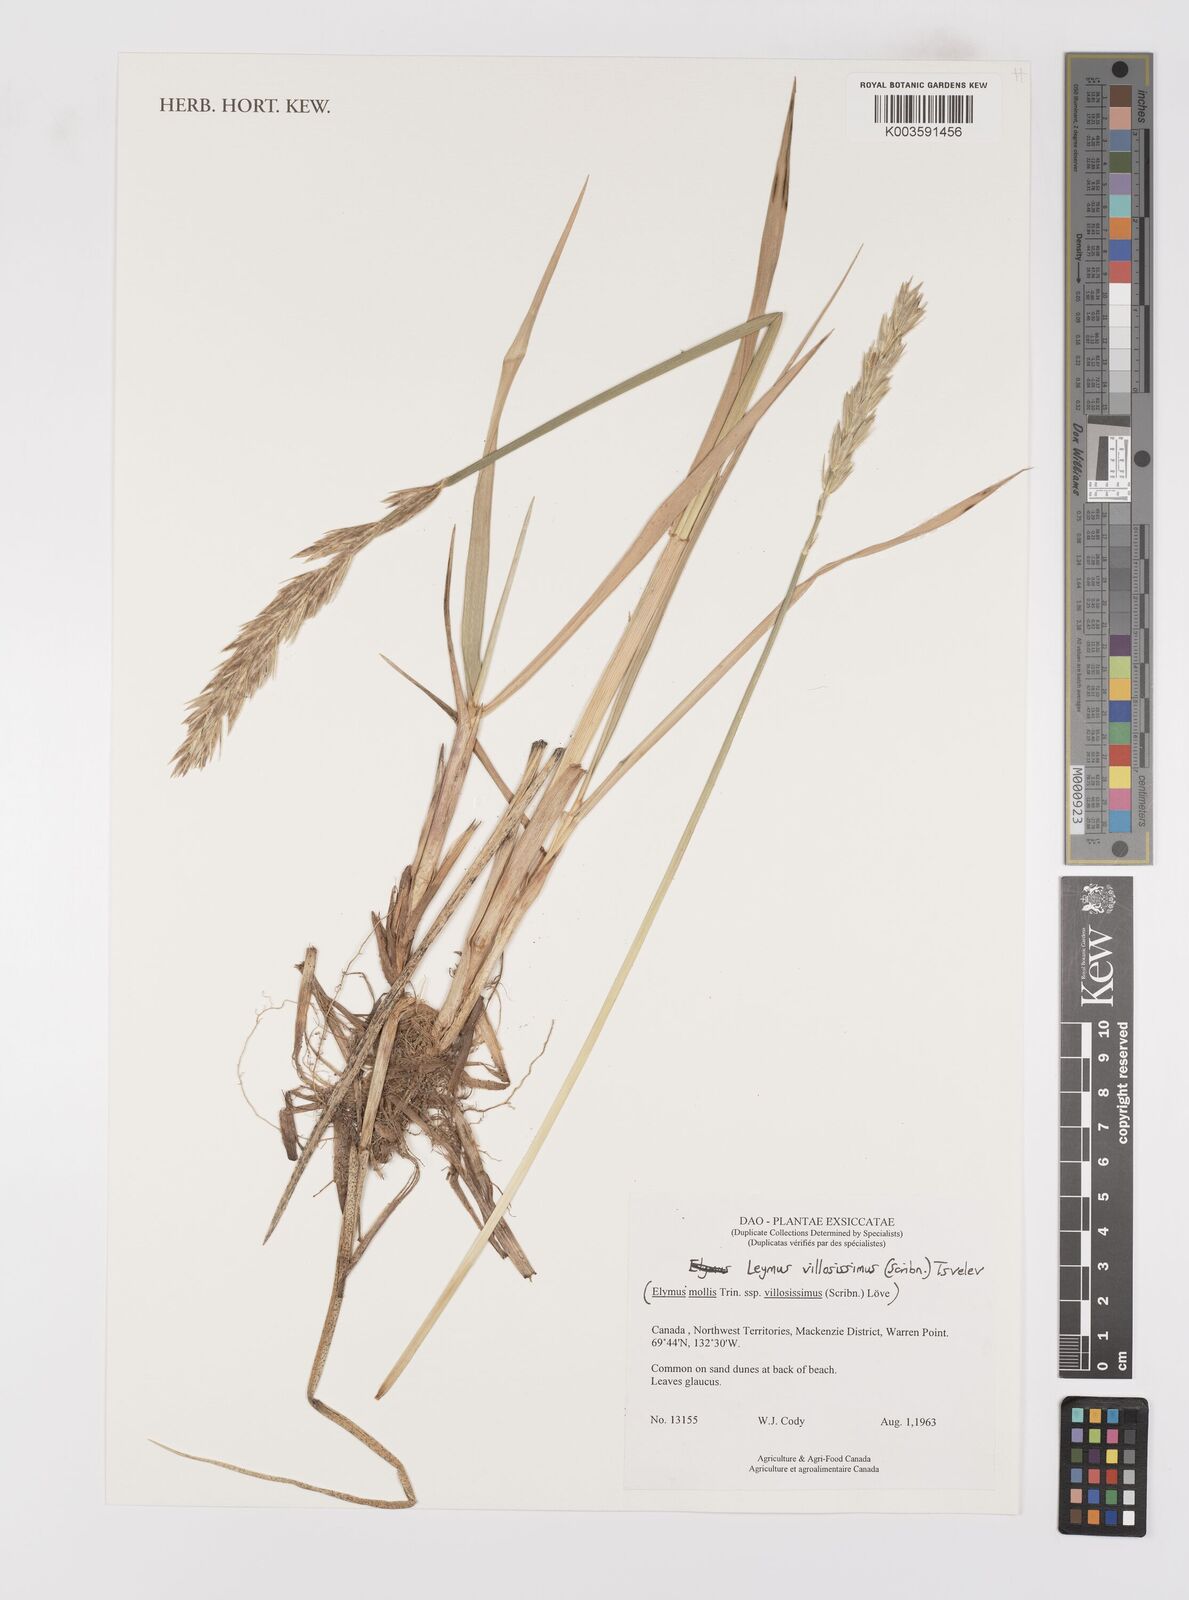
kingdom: Plantae
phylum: Tracheophyta
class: Liliopsida
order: Poales
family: Poaceae
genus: Leymus
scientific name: Leymus villosissimus
